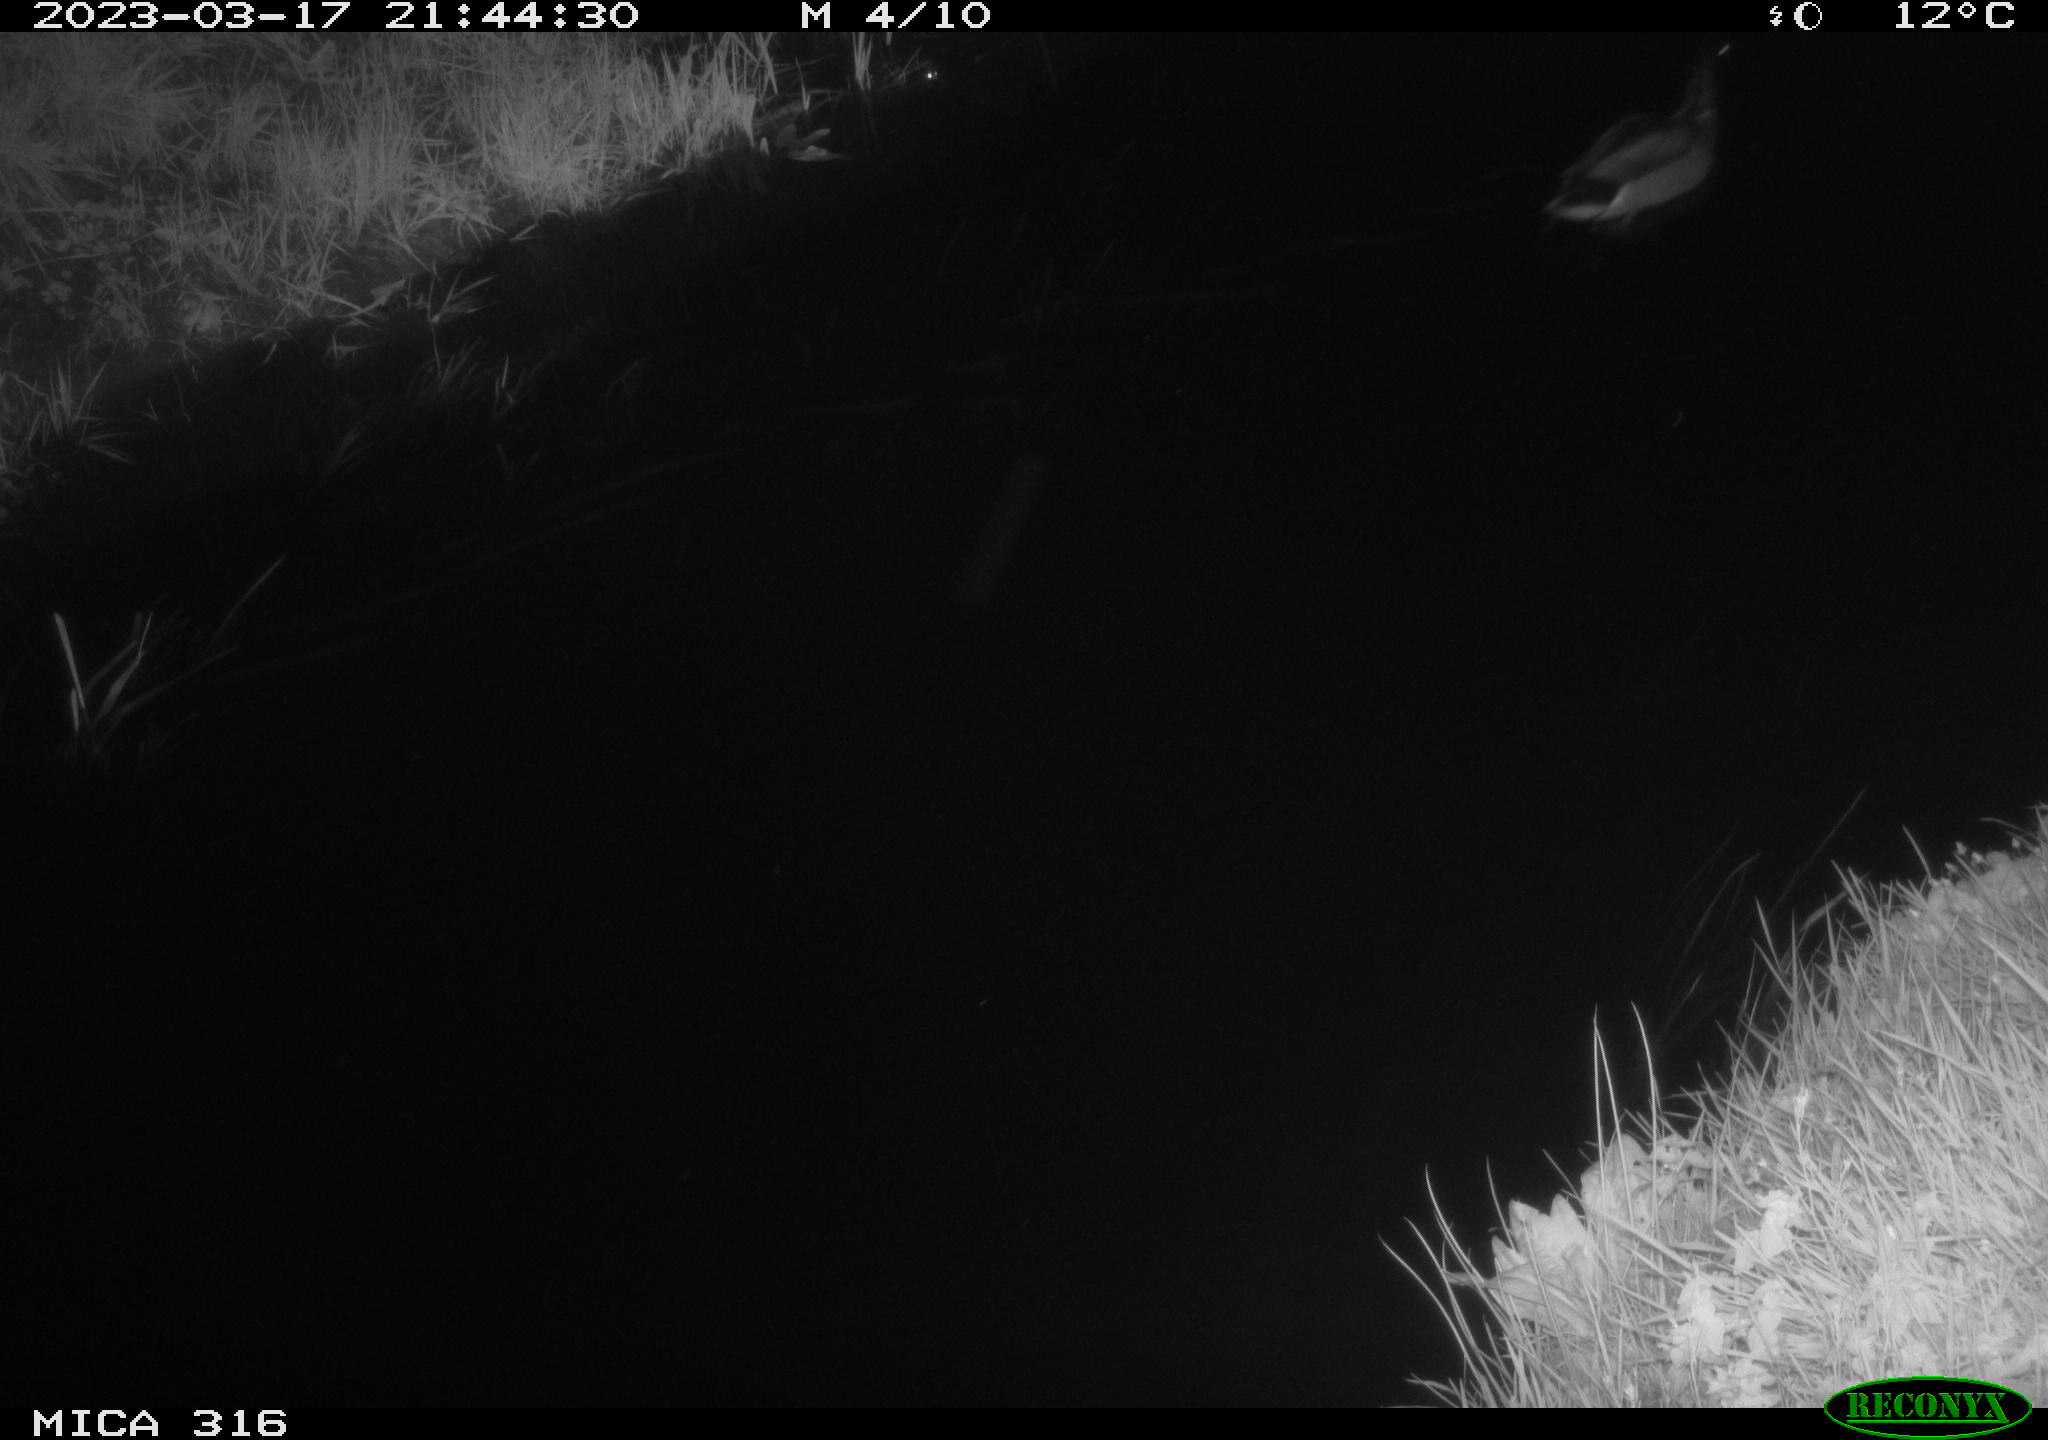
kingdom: Animalia
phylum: Chordata
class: Aves
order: Anseriformes
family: Anatidae
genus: Anas
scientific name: Anas
